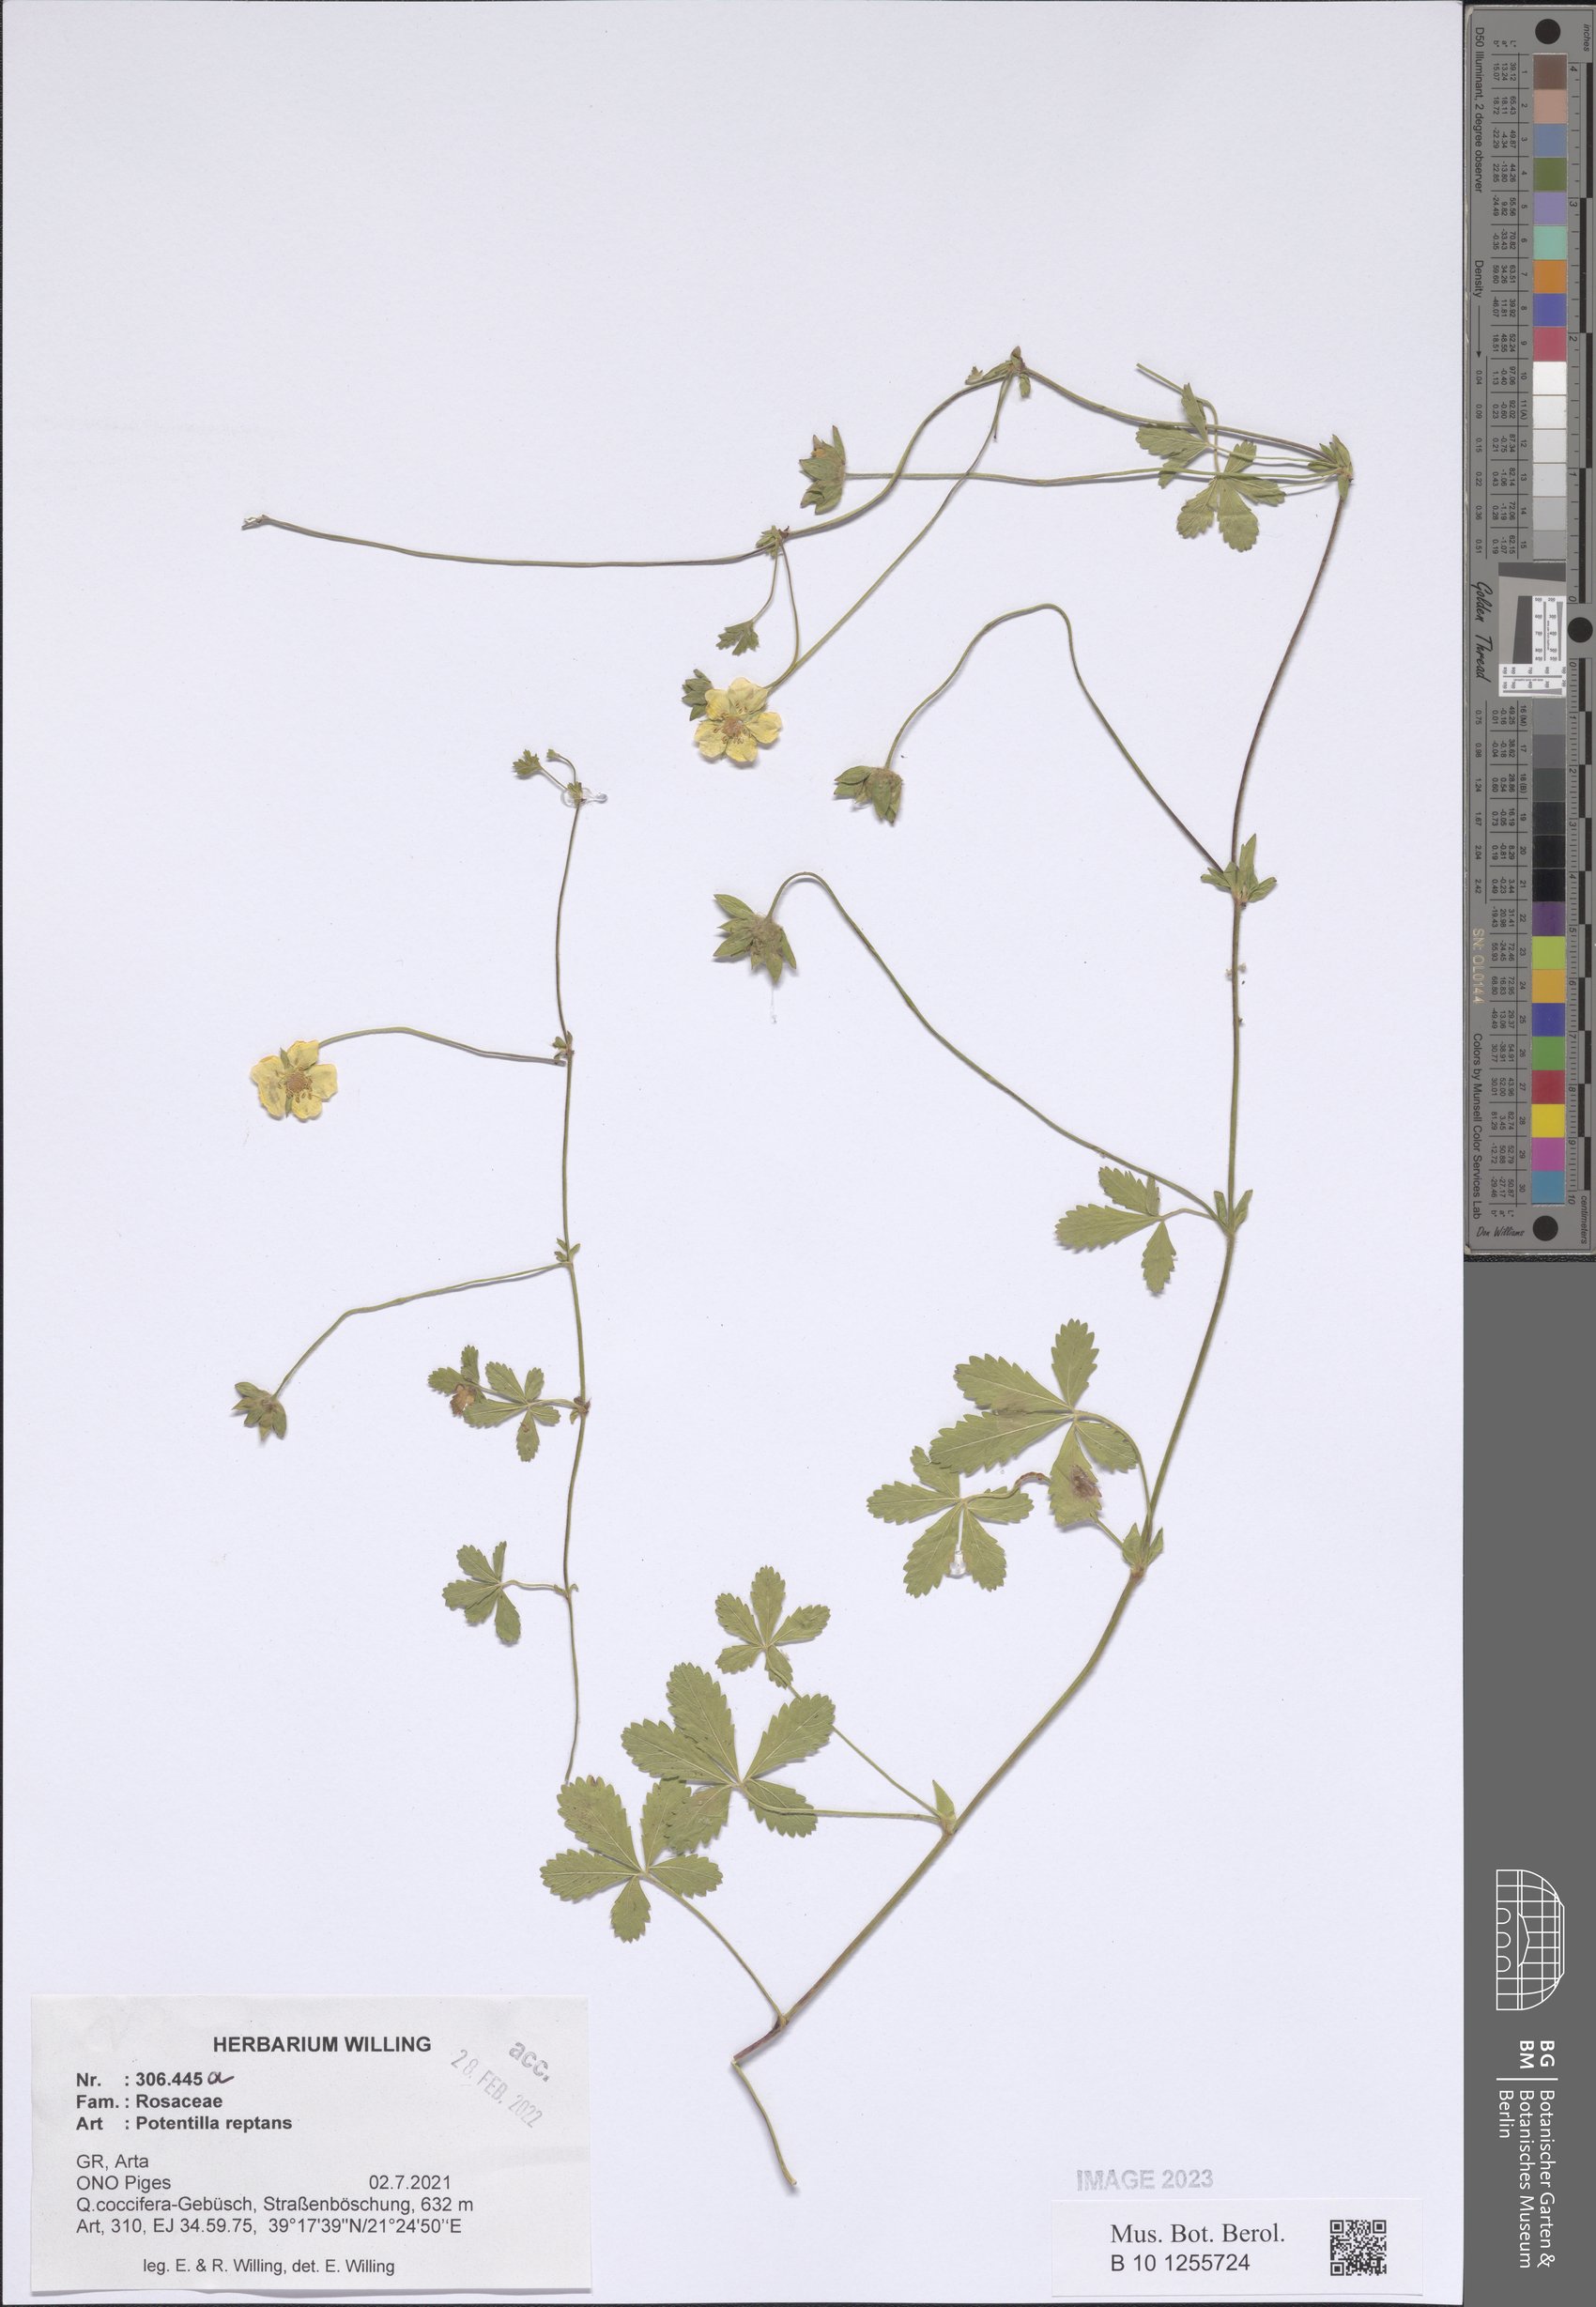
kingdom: Plantae
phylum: Tracheophyta
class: Magnoliopsida
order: Rosales
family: Rosaceae
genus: Potentilla
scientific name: Potentilla reptans
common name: Creeping cinquefoil
